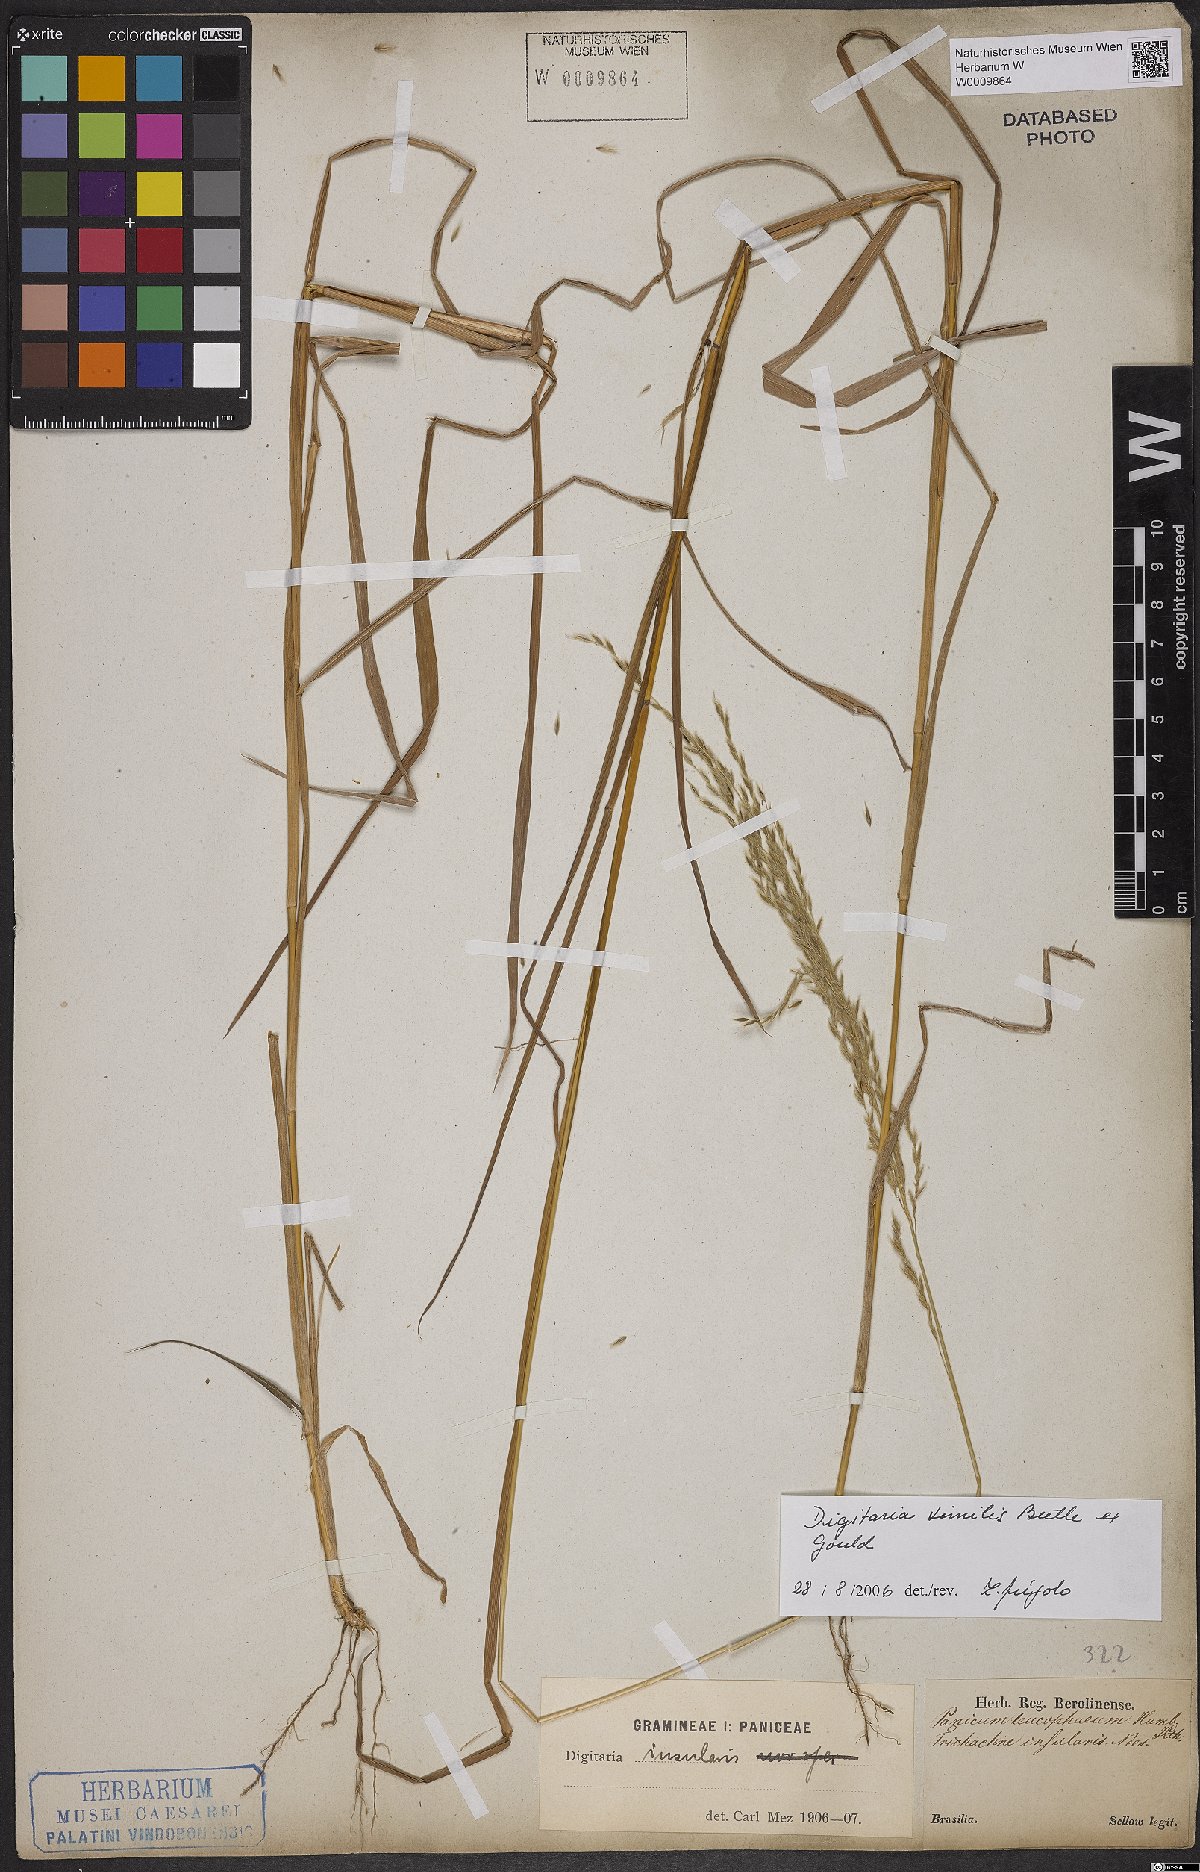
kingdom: Plantae
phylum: Tracheophyta
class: Liliopsida
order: Poales
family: Poaceae
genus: Digitaria
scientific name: Digitaria sellowii
